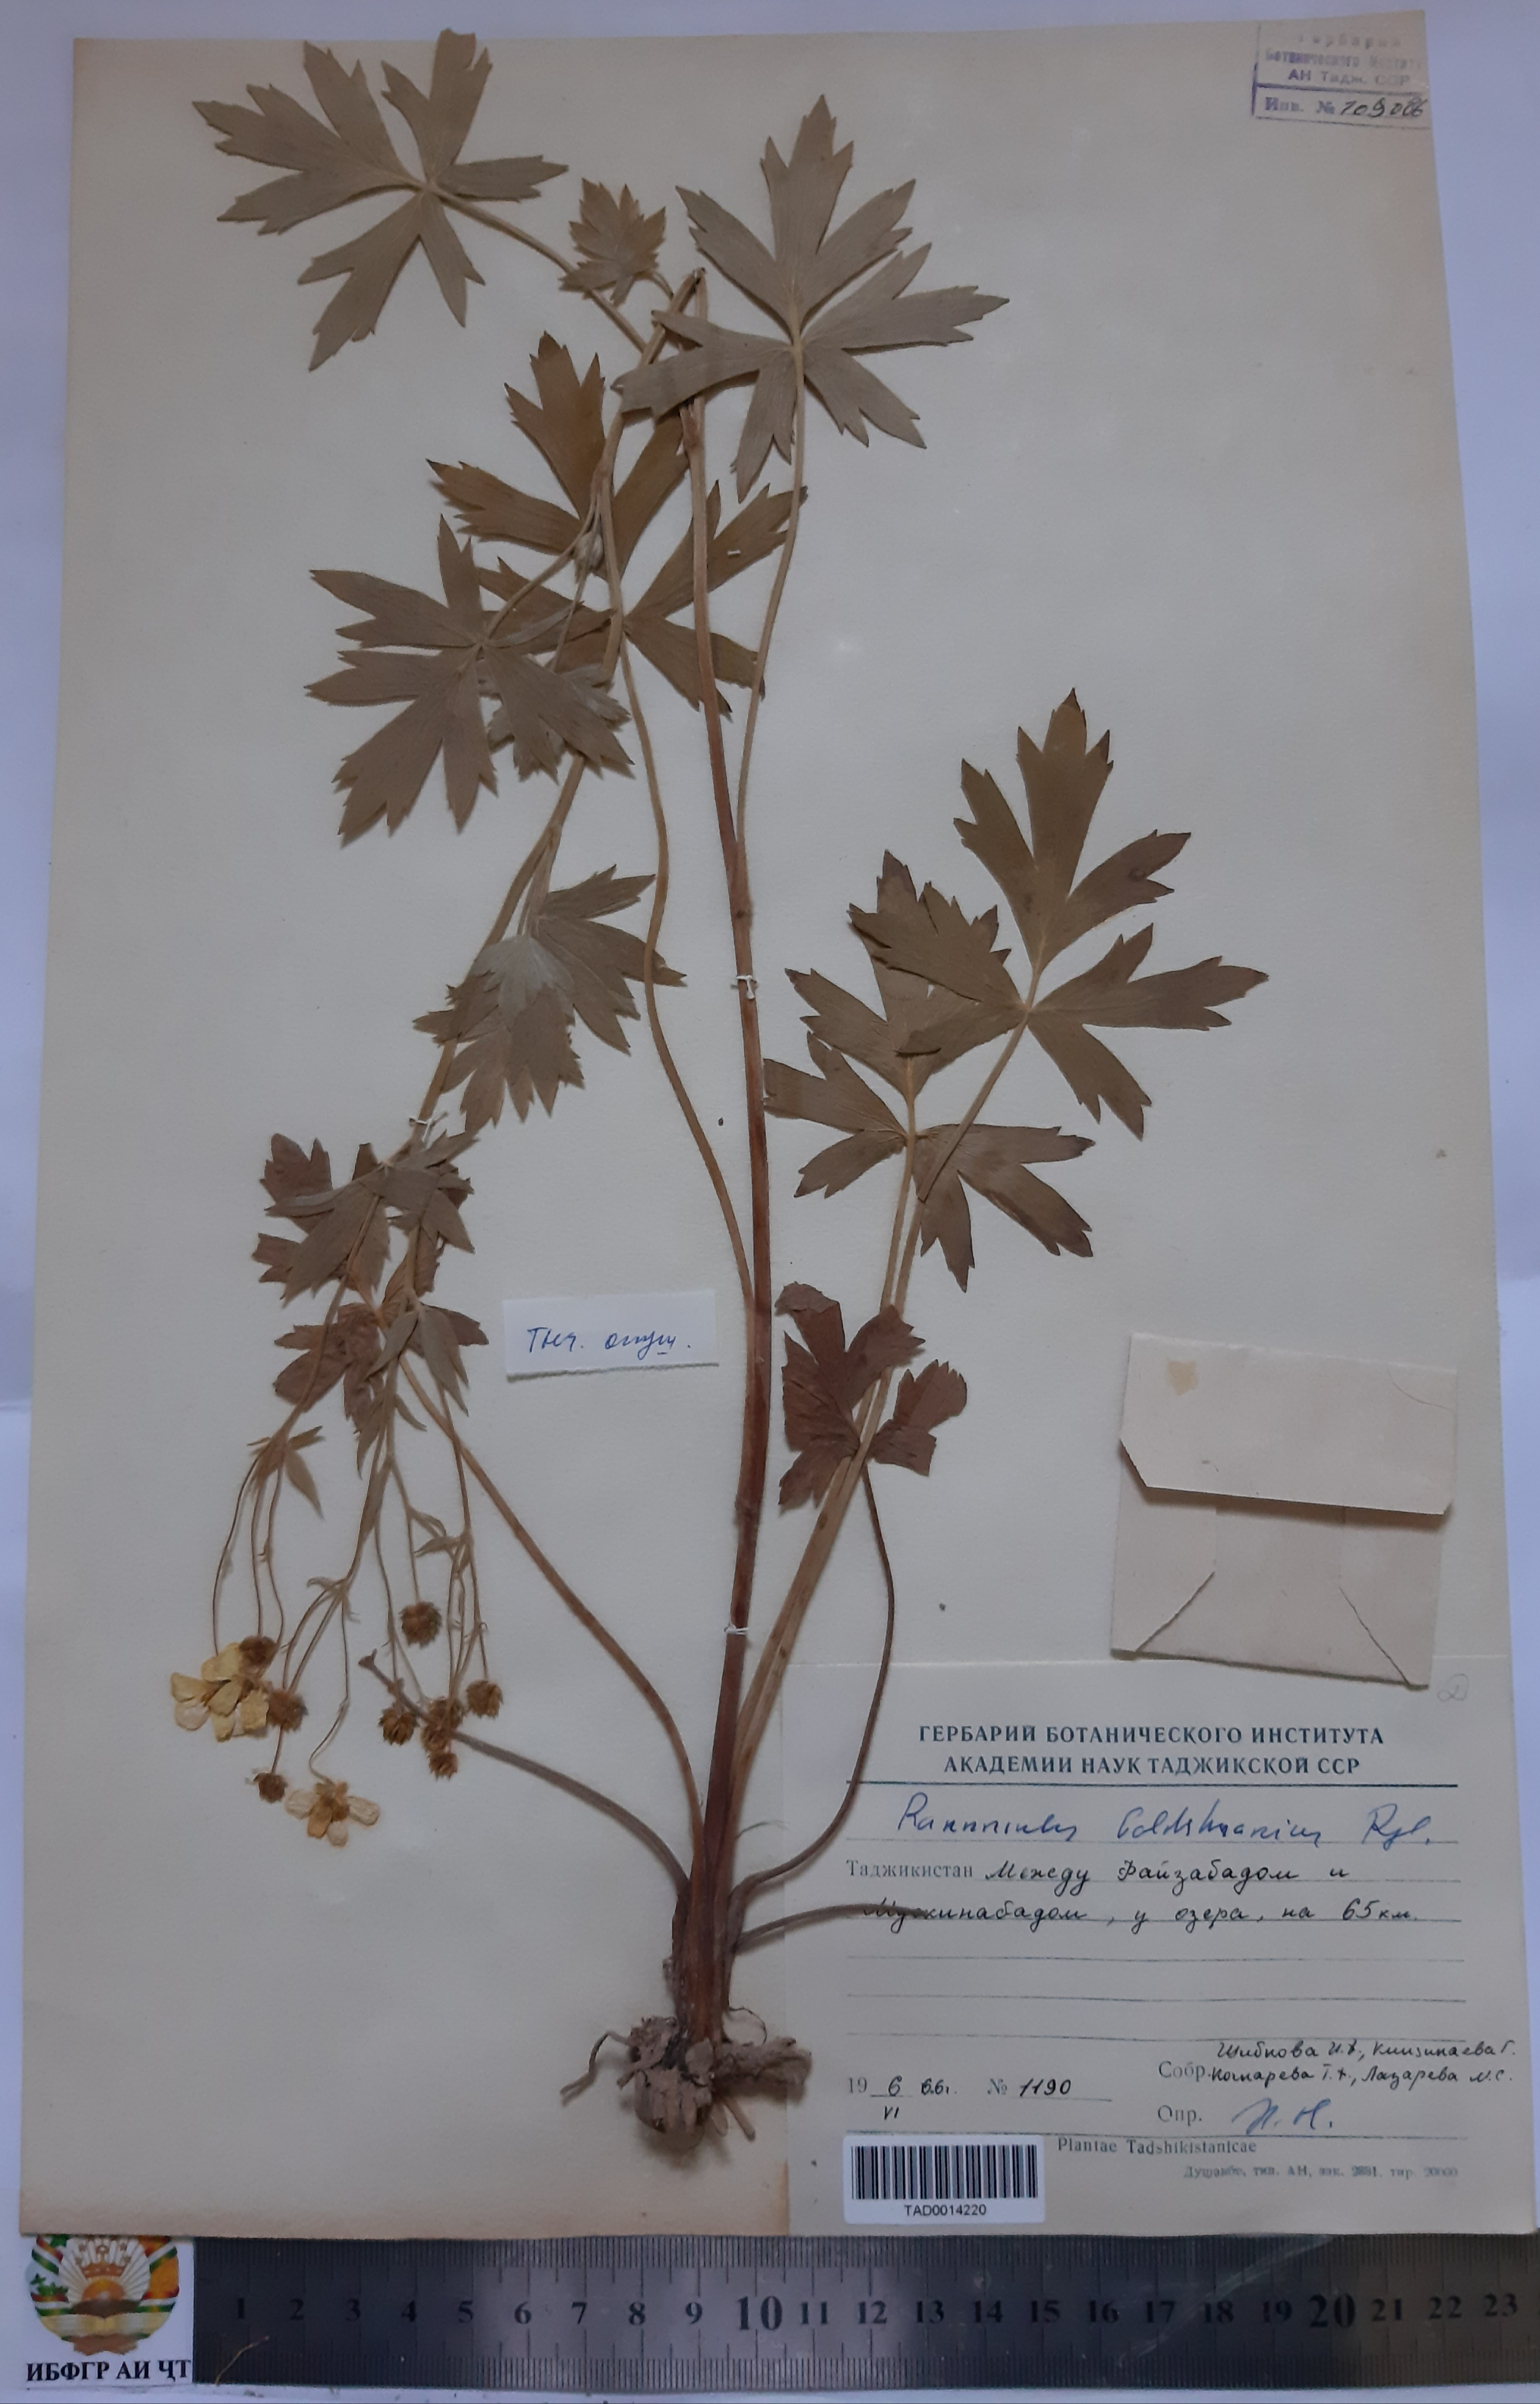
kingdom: Plantae
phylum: Tracheophyta
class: Magnoliopsida
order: Ranunculales
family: Ranunculaceae
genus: Ranunculus
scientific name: Ranunculus baldshuanicus
